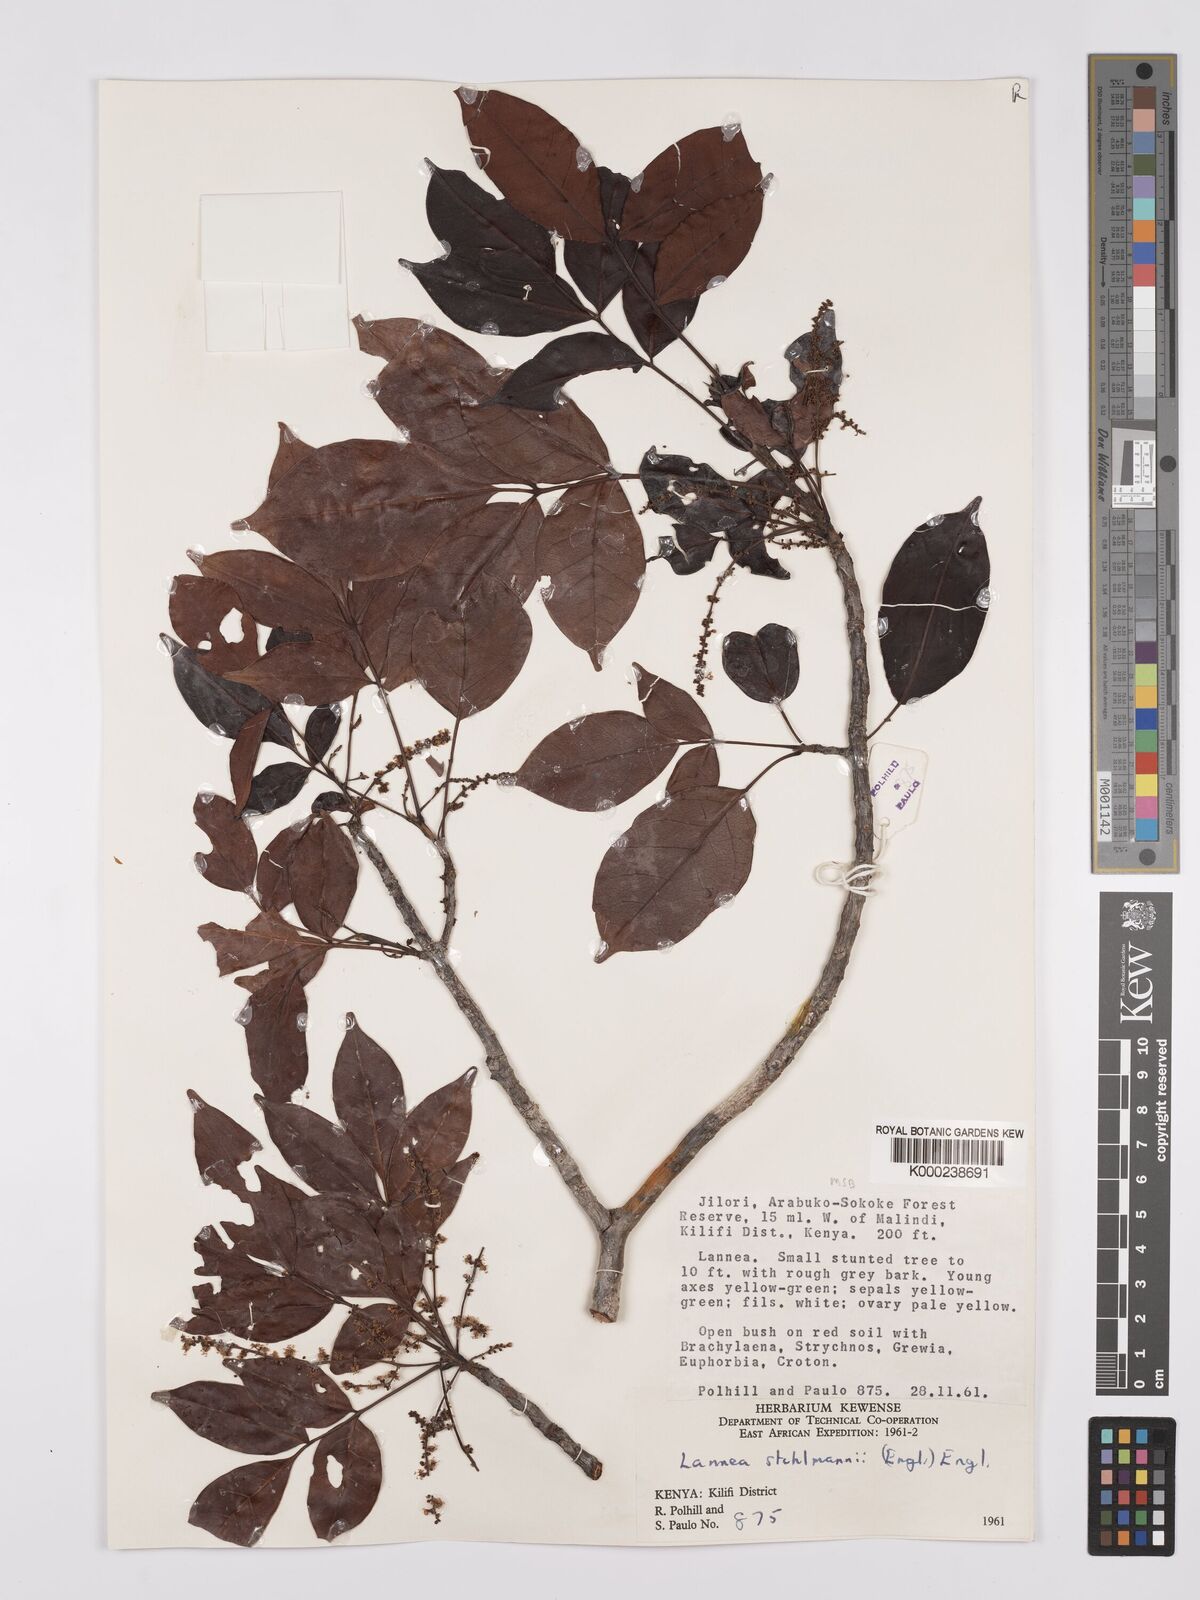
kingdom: Plantae
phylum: Tracheophyta
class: Magnoliopsida
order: Sapindales
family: Anacardiaceae
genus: Lannea
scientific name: Lannea schweinfurthii
